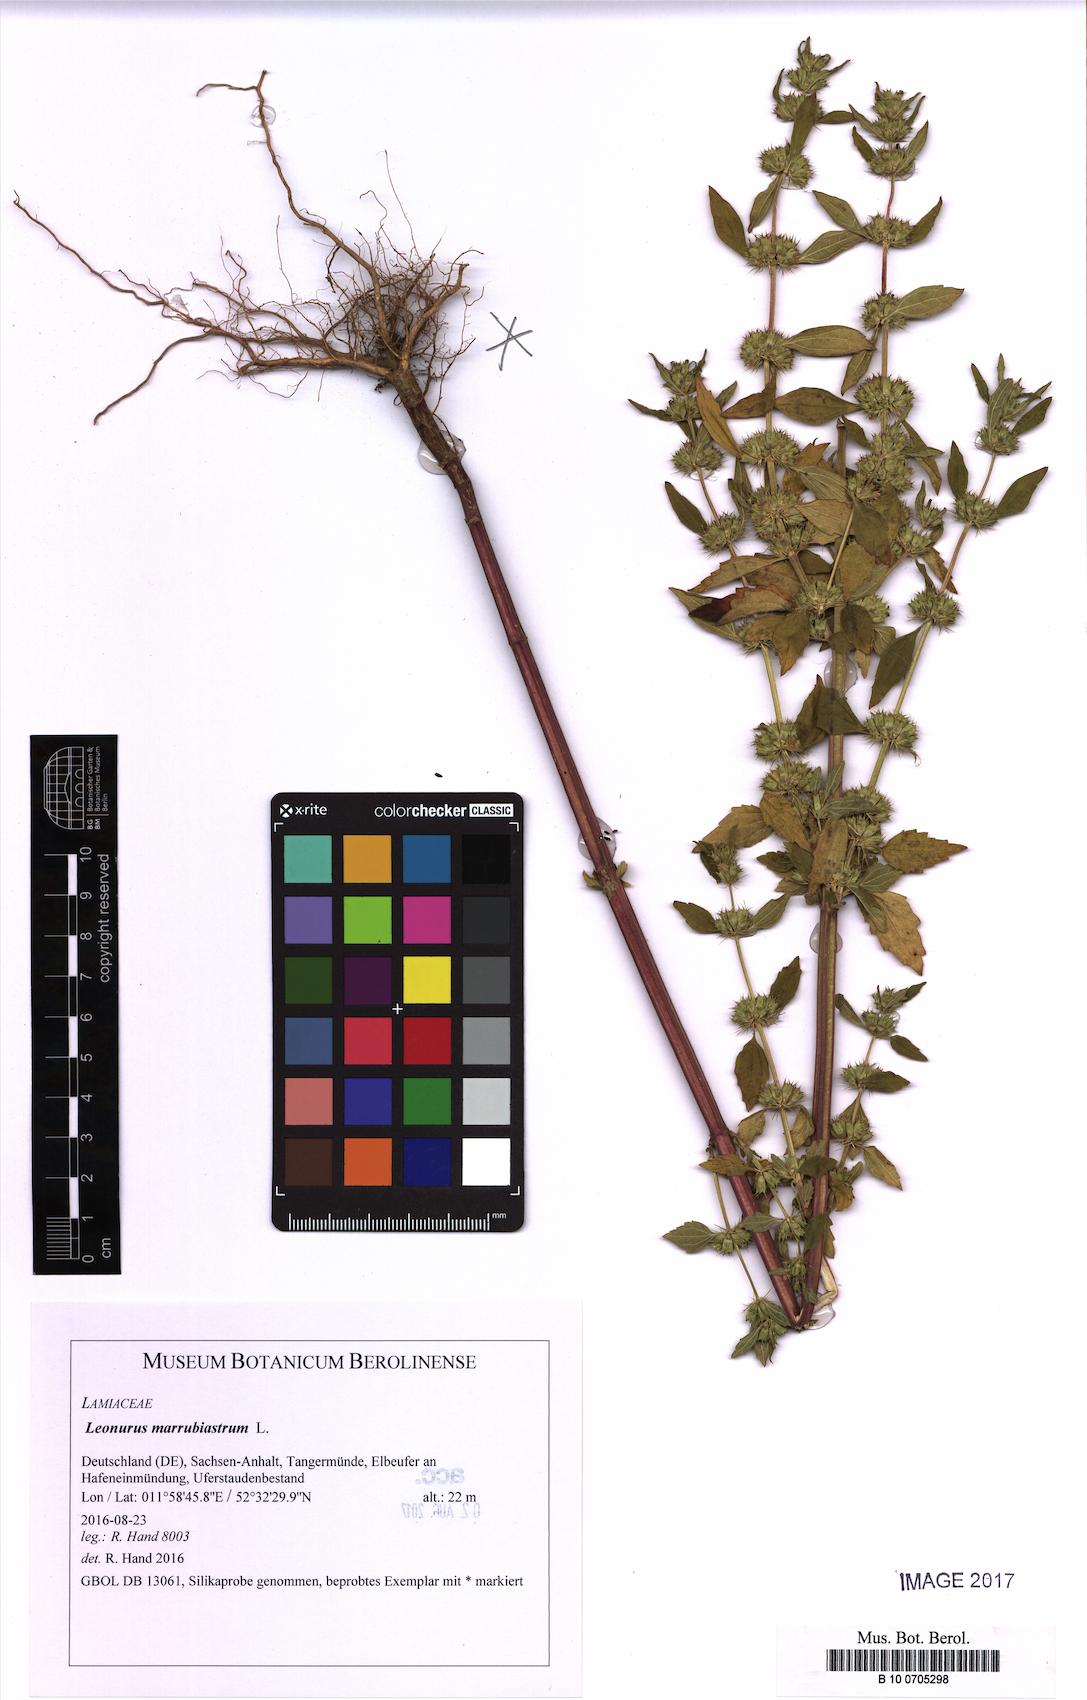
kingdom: Plantae
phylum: Tracheophyta
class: Magnoliopsida
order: Lamiales
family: Lamiaceae
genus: Chaiturus
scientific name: Chaiturus marrubiastrum
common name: Lion's tail
